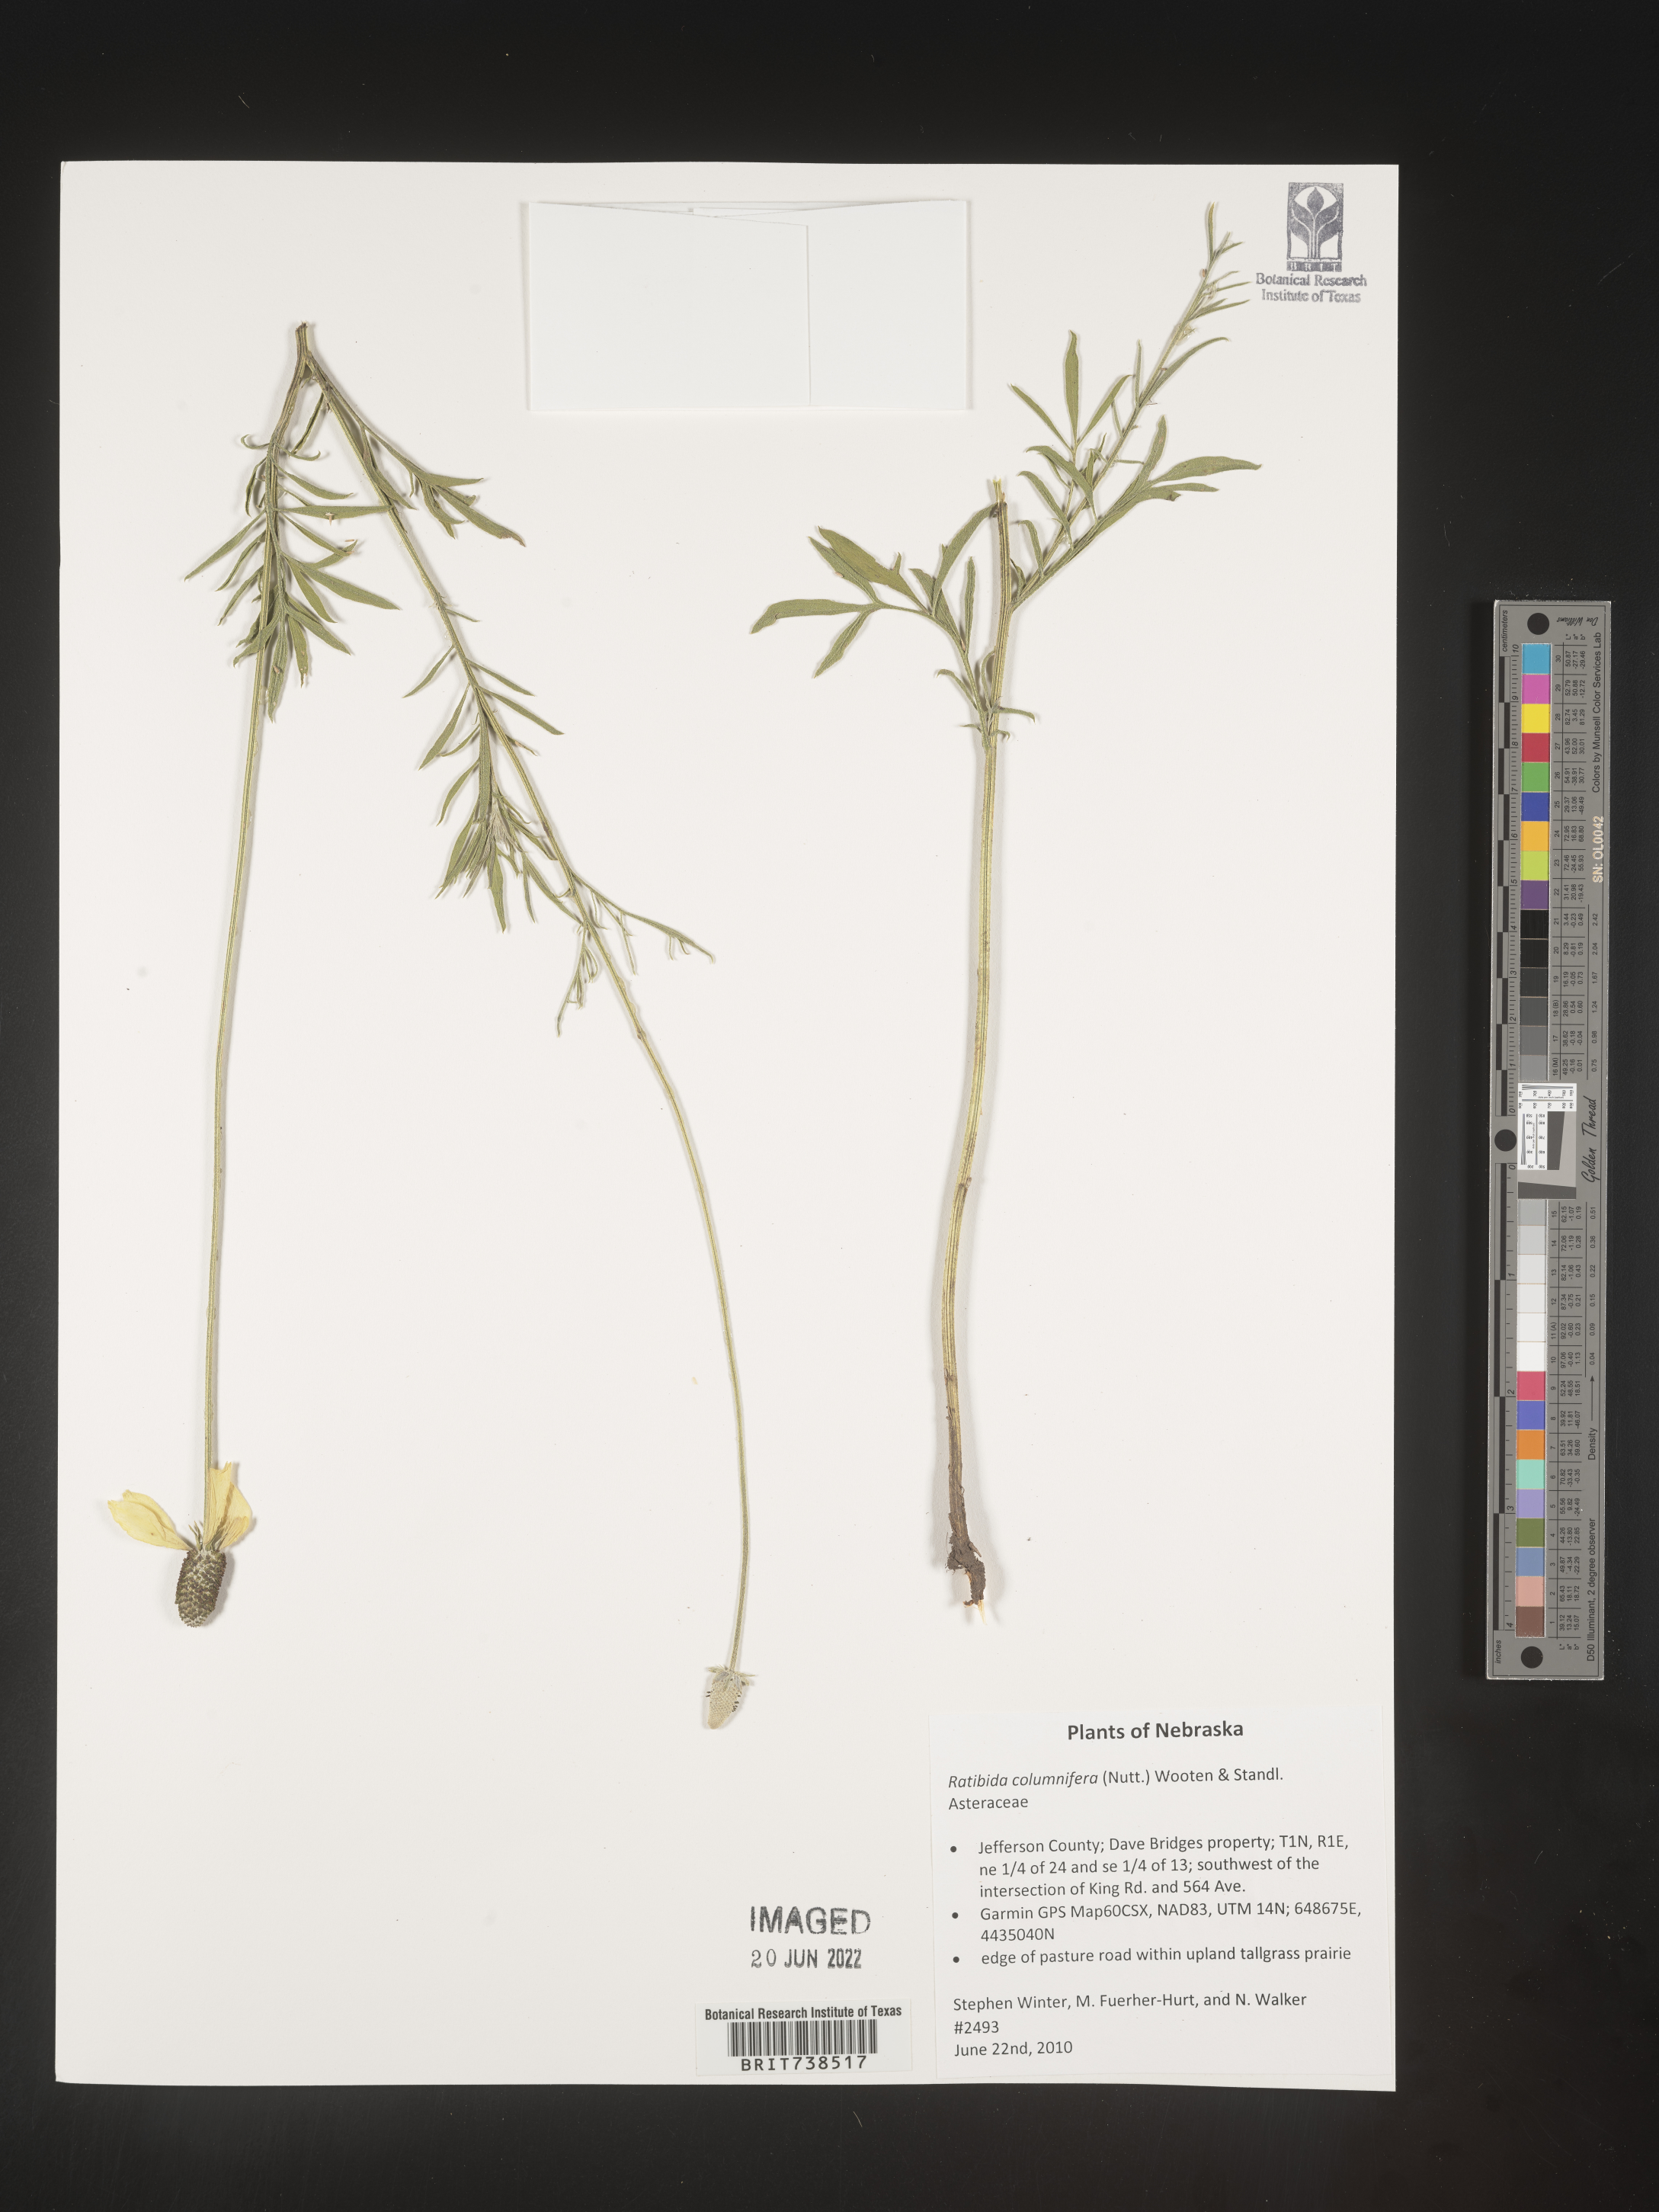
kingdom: Plantae
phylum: Tracheophyta
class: Magnoliopsida
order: Asterales
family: Asteraceae
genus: Ratibida
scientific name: Ratibida columnifera
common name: Prairie coneflower
